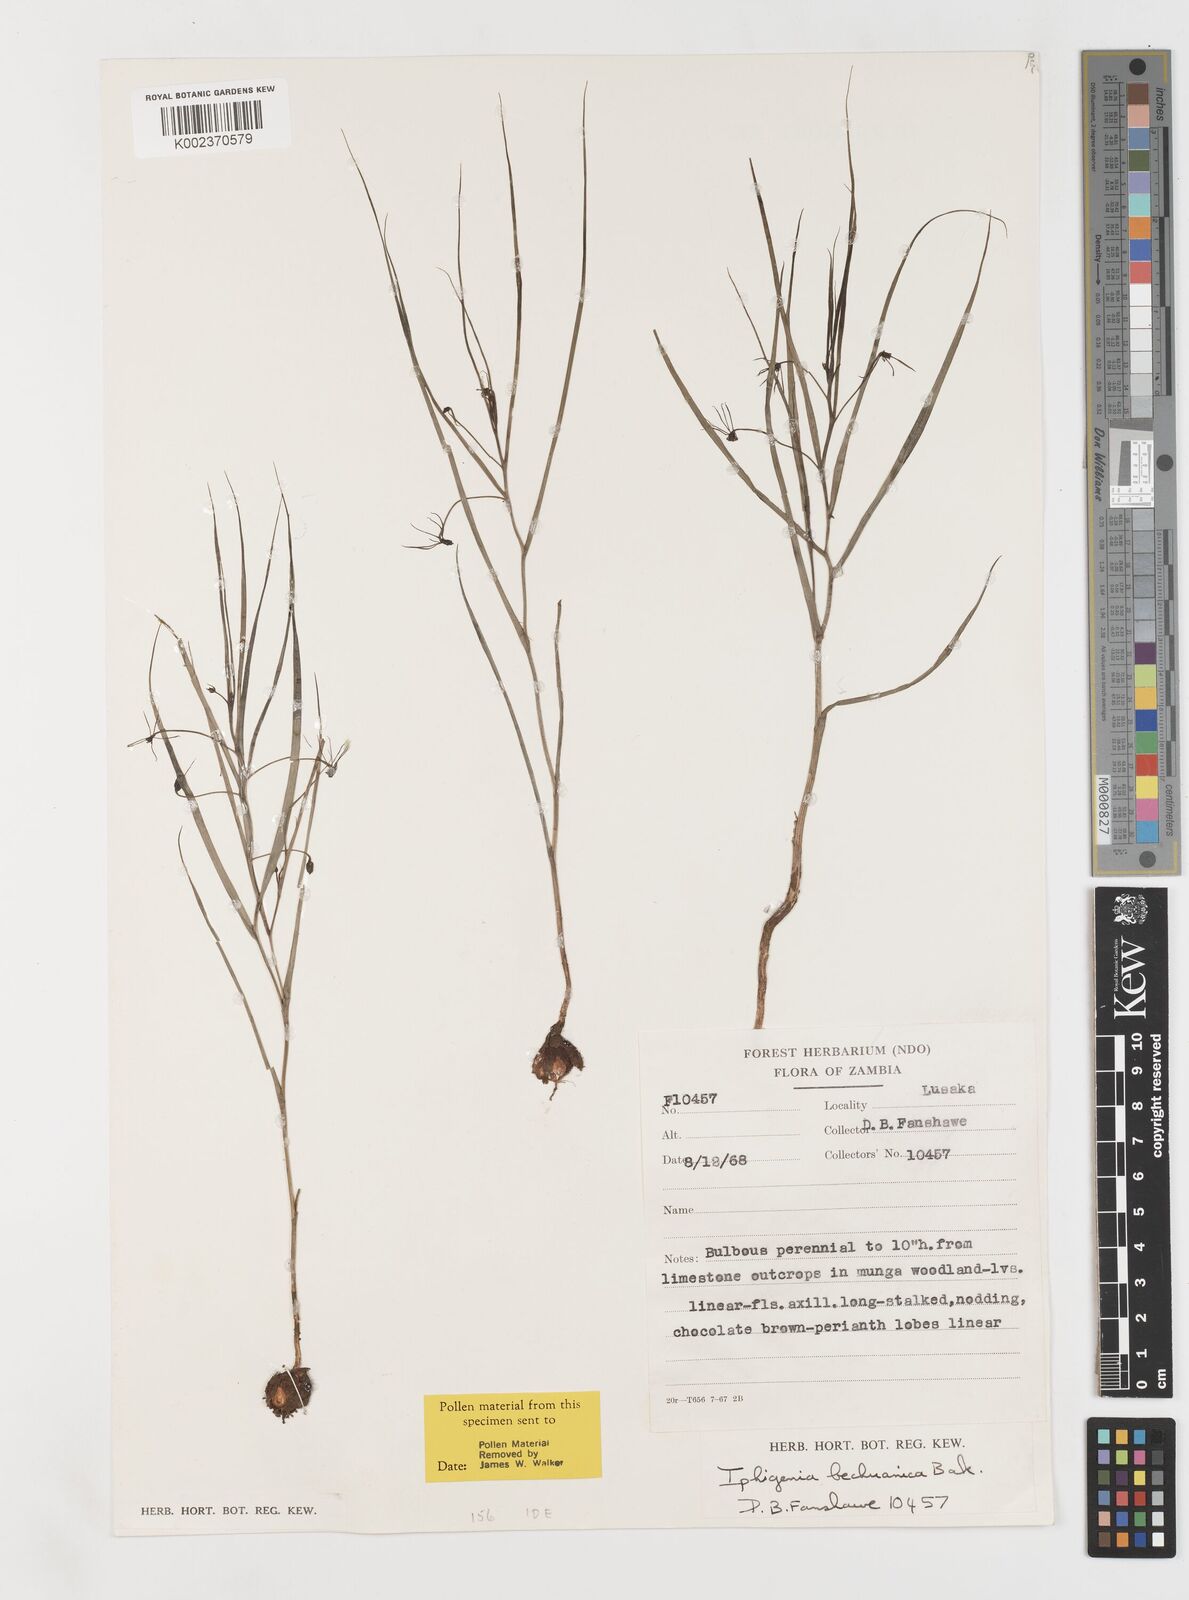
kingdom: Plantae
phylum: Tracheophyta
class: Liliopsida
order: Liliales
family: Colchicaceae
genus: Iphigenia
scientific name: Iphigenia oliveri
